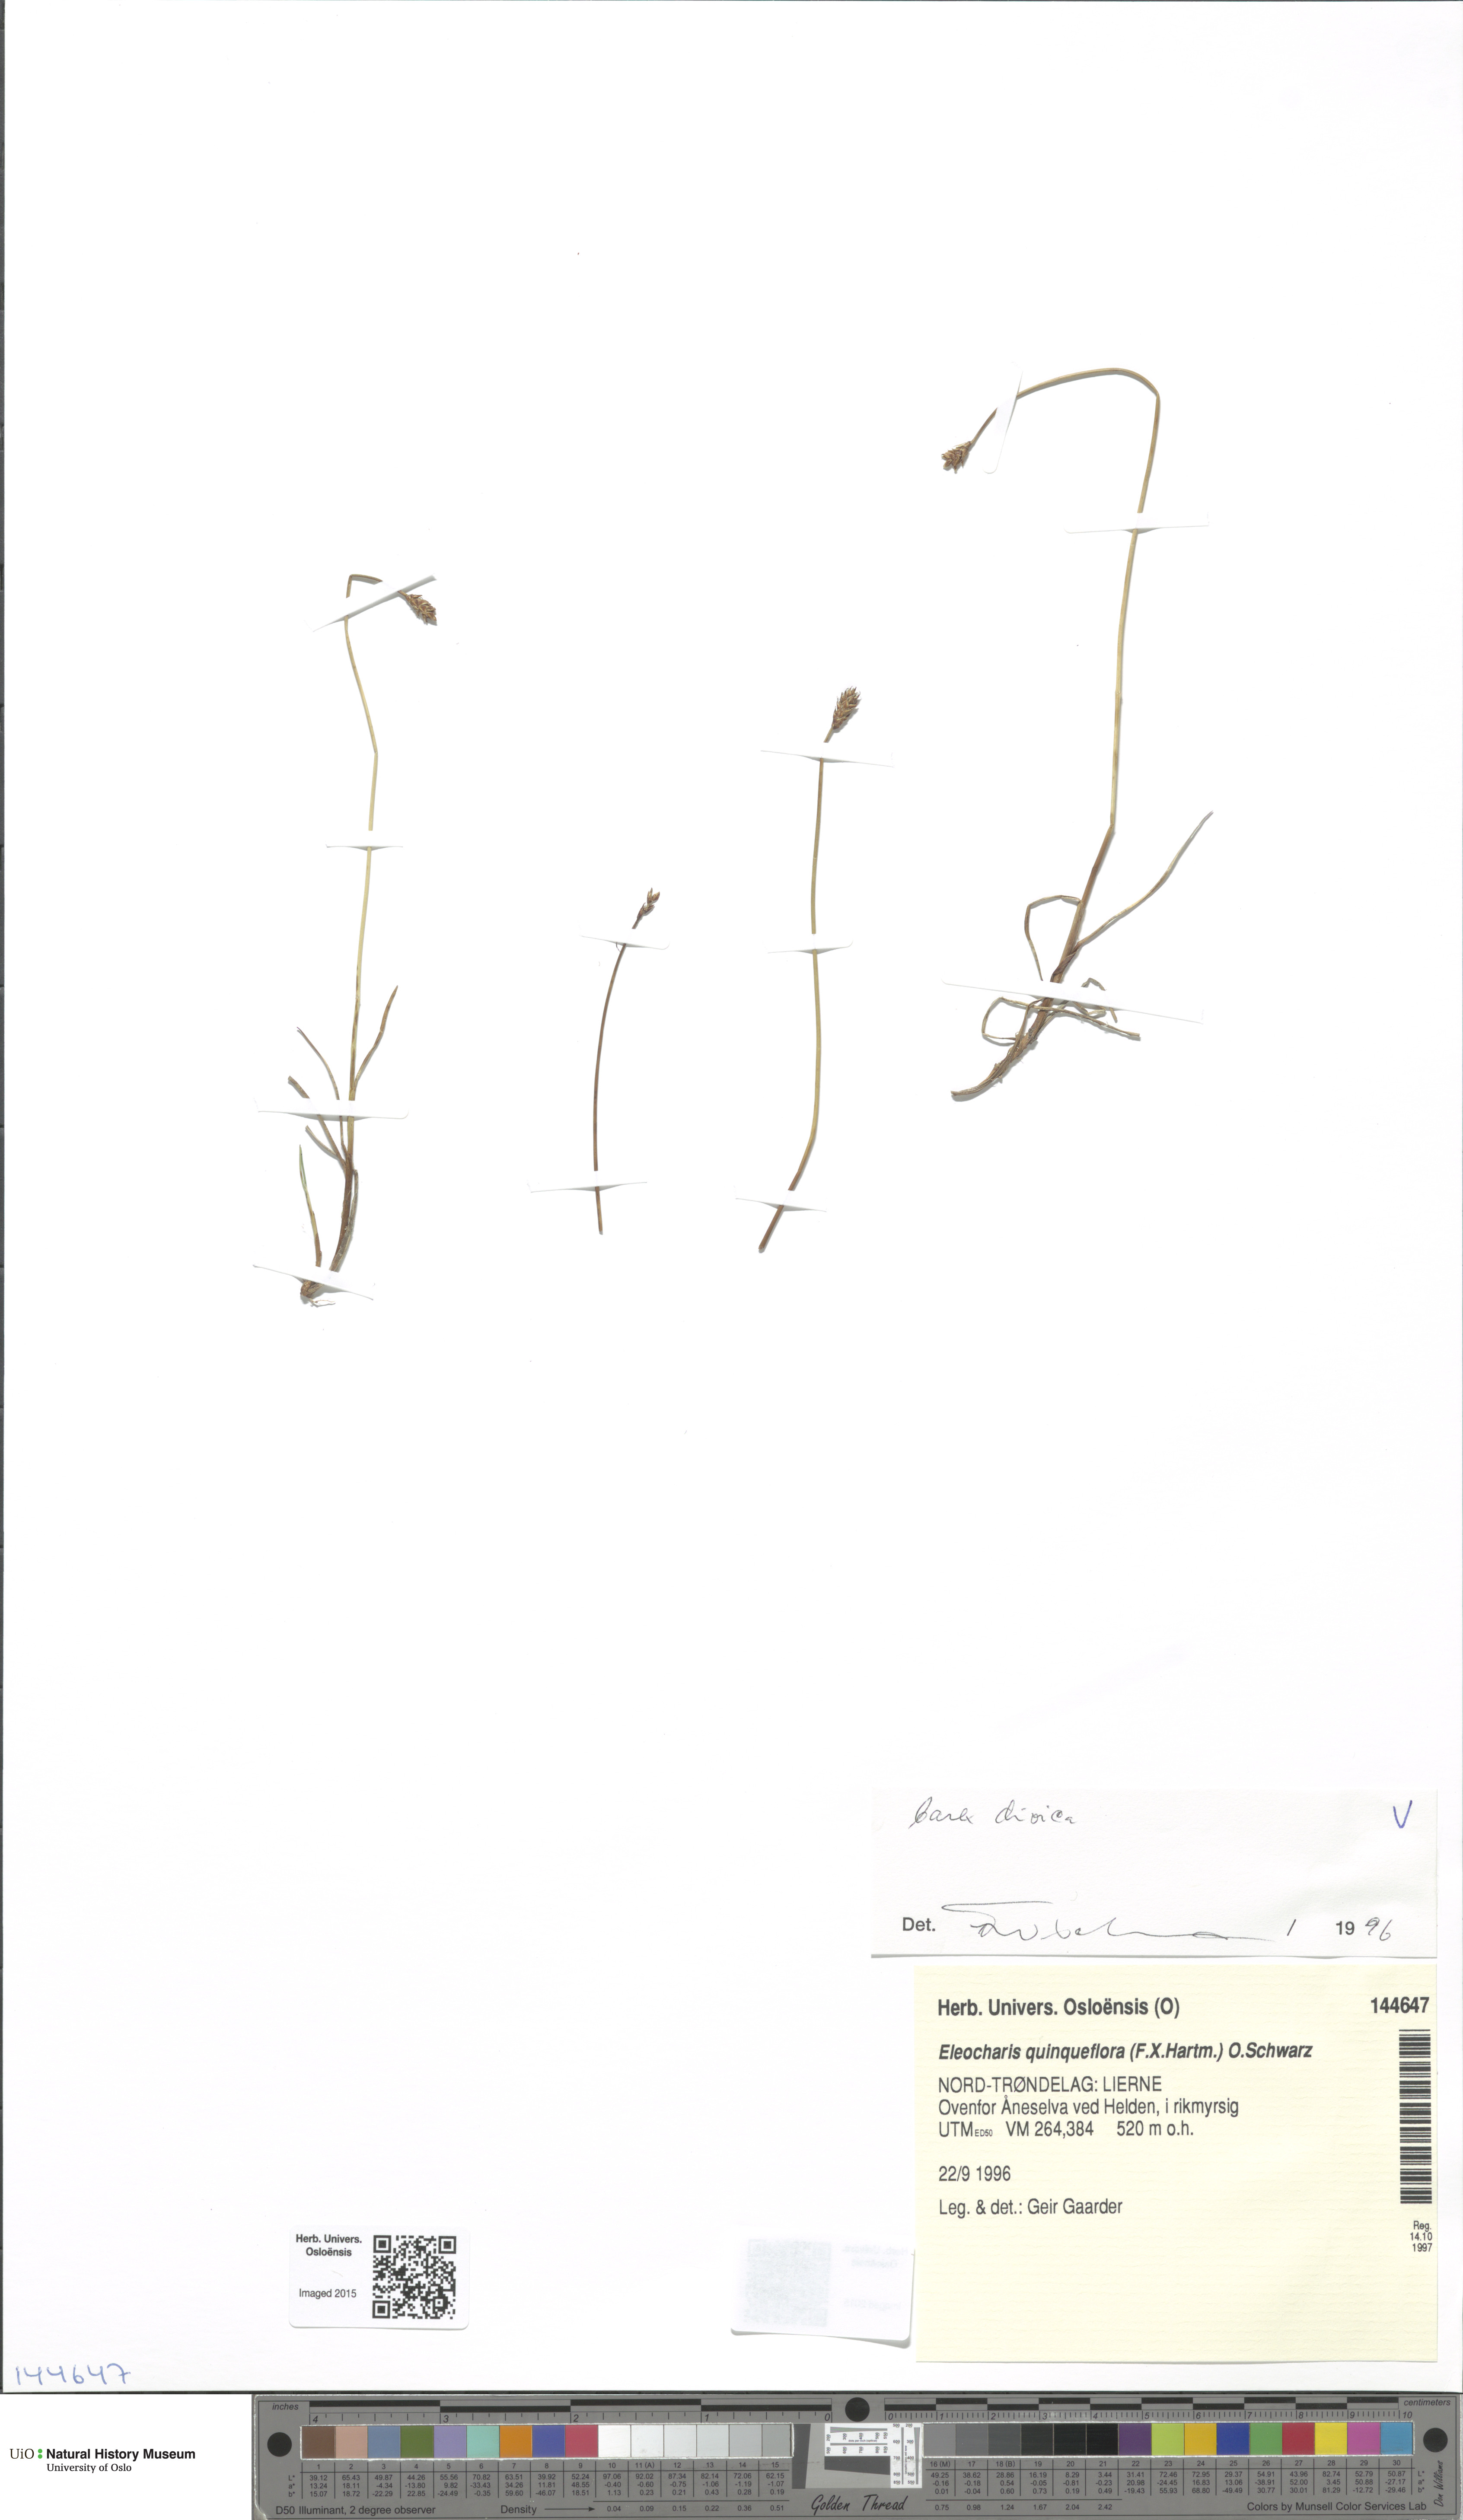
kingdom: Plantae
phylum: Tracheophyta
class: Liliopsida
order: Poales
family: Cyperaceae
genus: Carex
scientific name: Carex dioica
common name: Dioecious sedge
